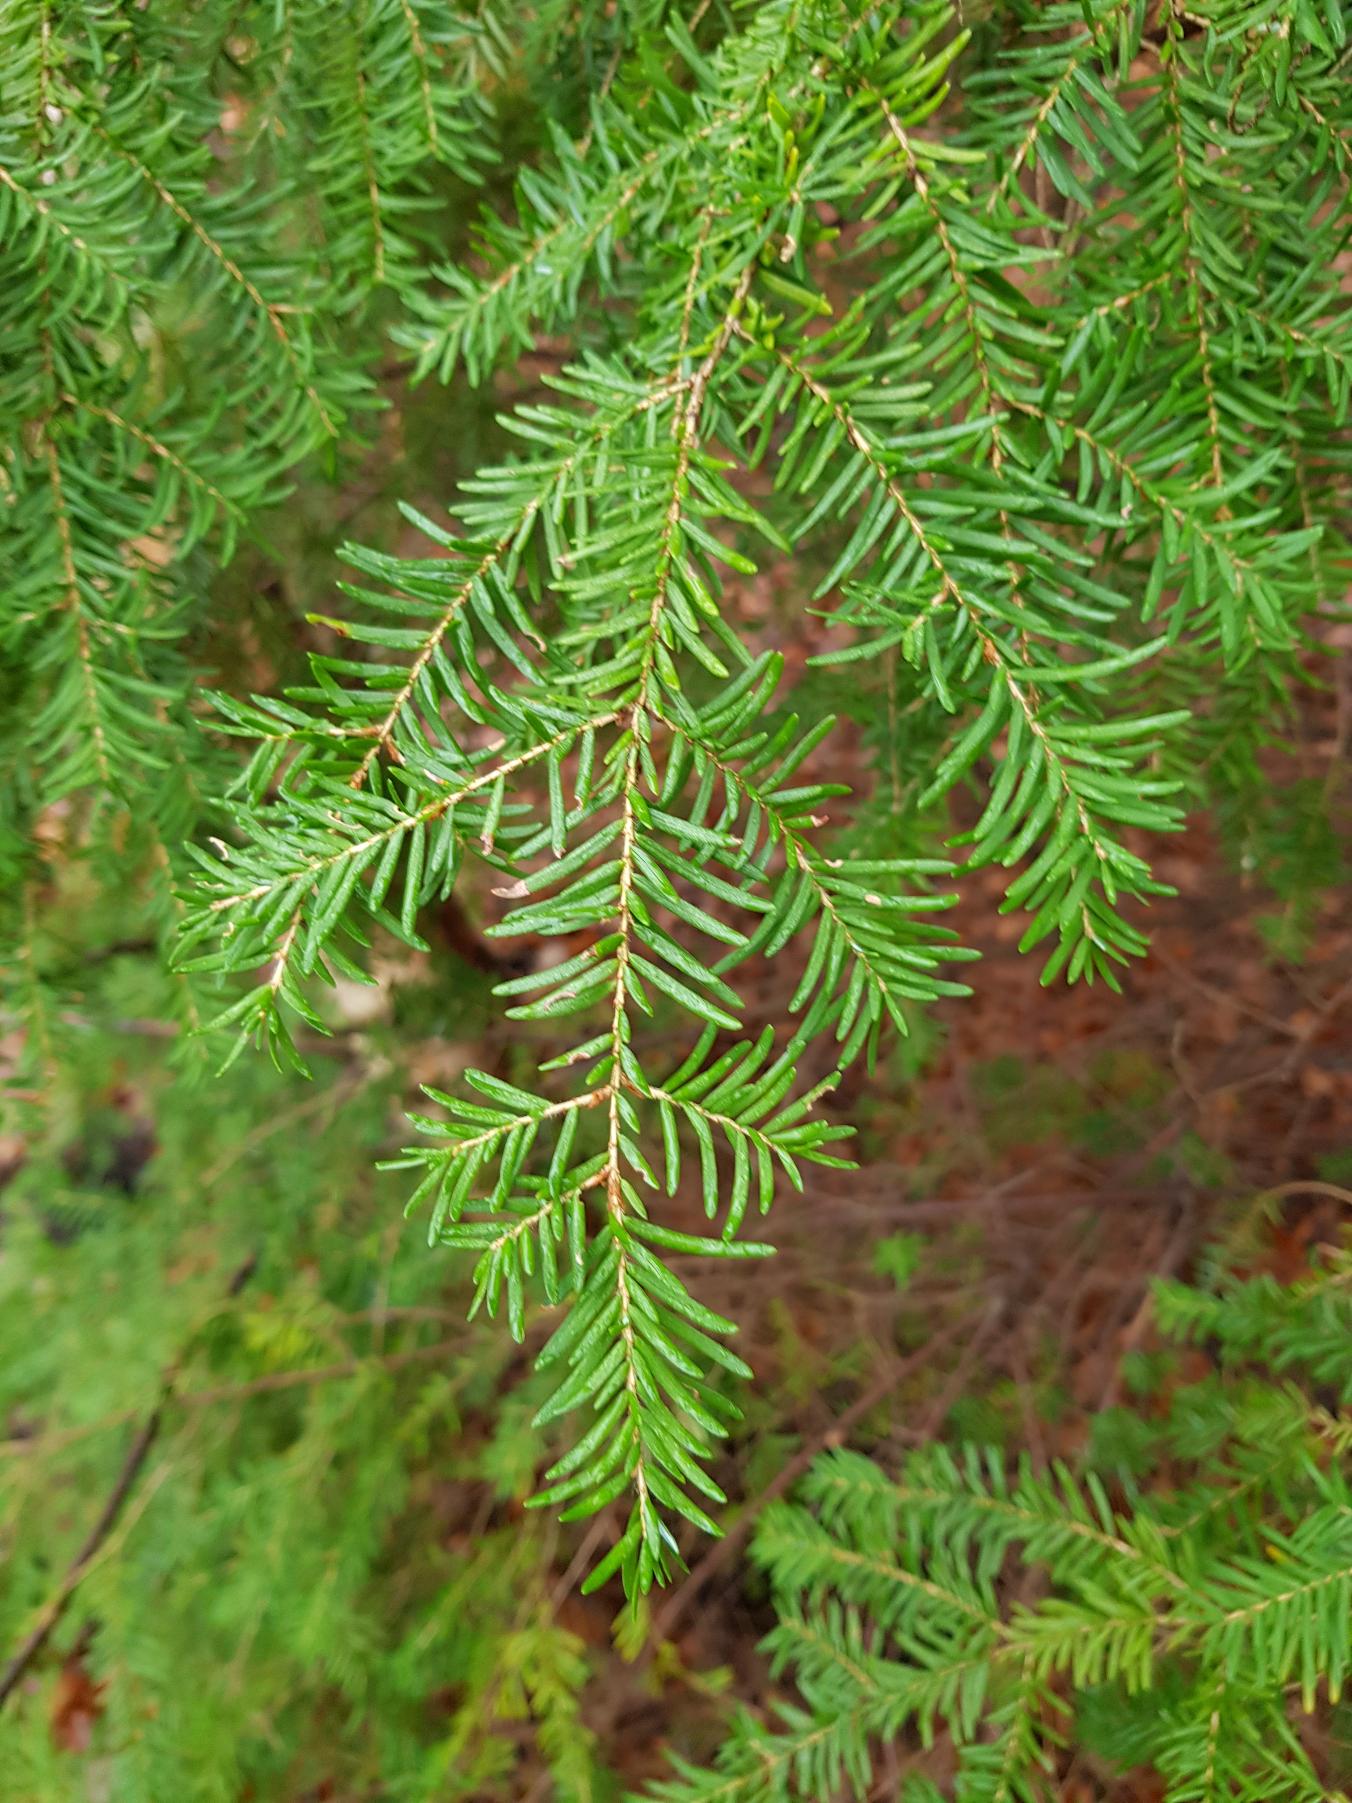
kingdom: Plantae
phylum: Tracheophyta
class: Pinopsida
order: Pinales
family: Pinaceae
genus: Tsuga
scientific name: Tsuga heterophylla
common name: Skarntydegran
